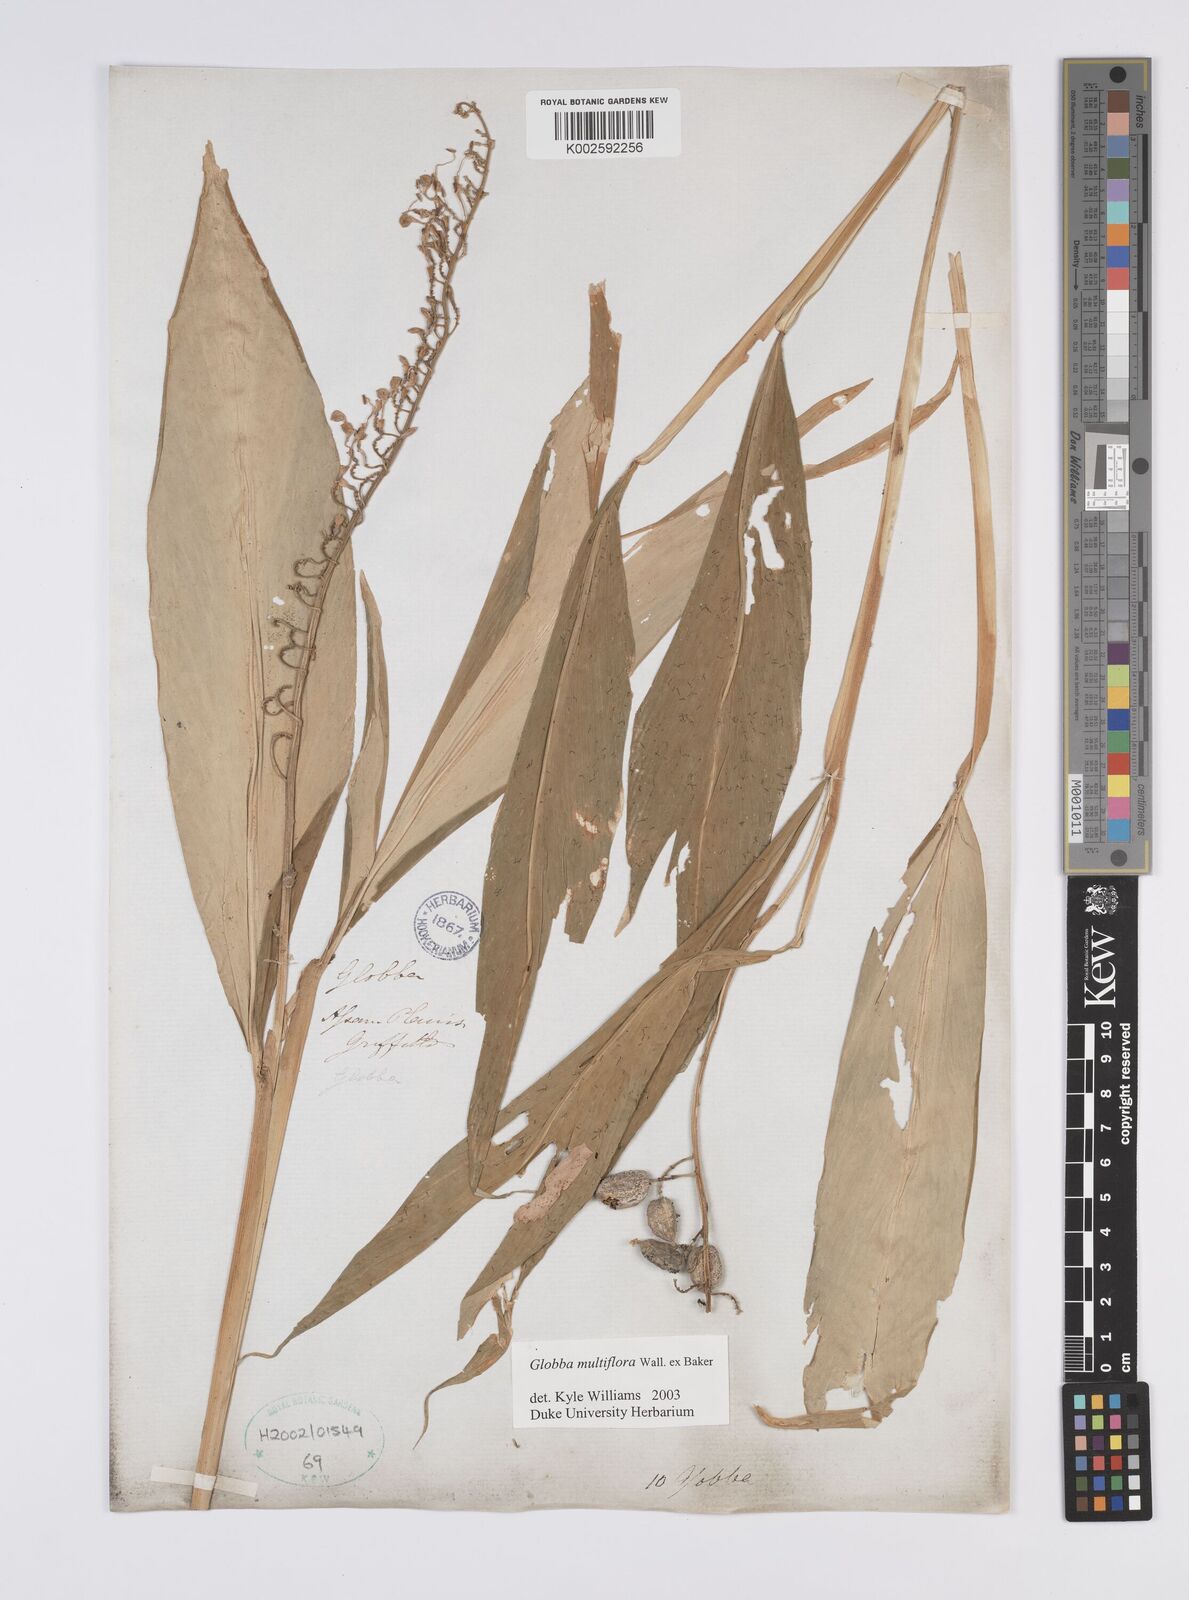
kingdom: Plantae
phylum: Tracheophyta
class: Liliopsida
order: Zingiberales
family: Zingiberaceae
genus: Globba
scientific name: Globba multiflora
